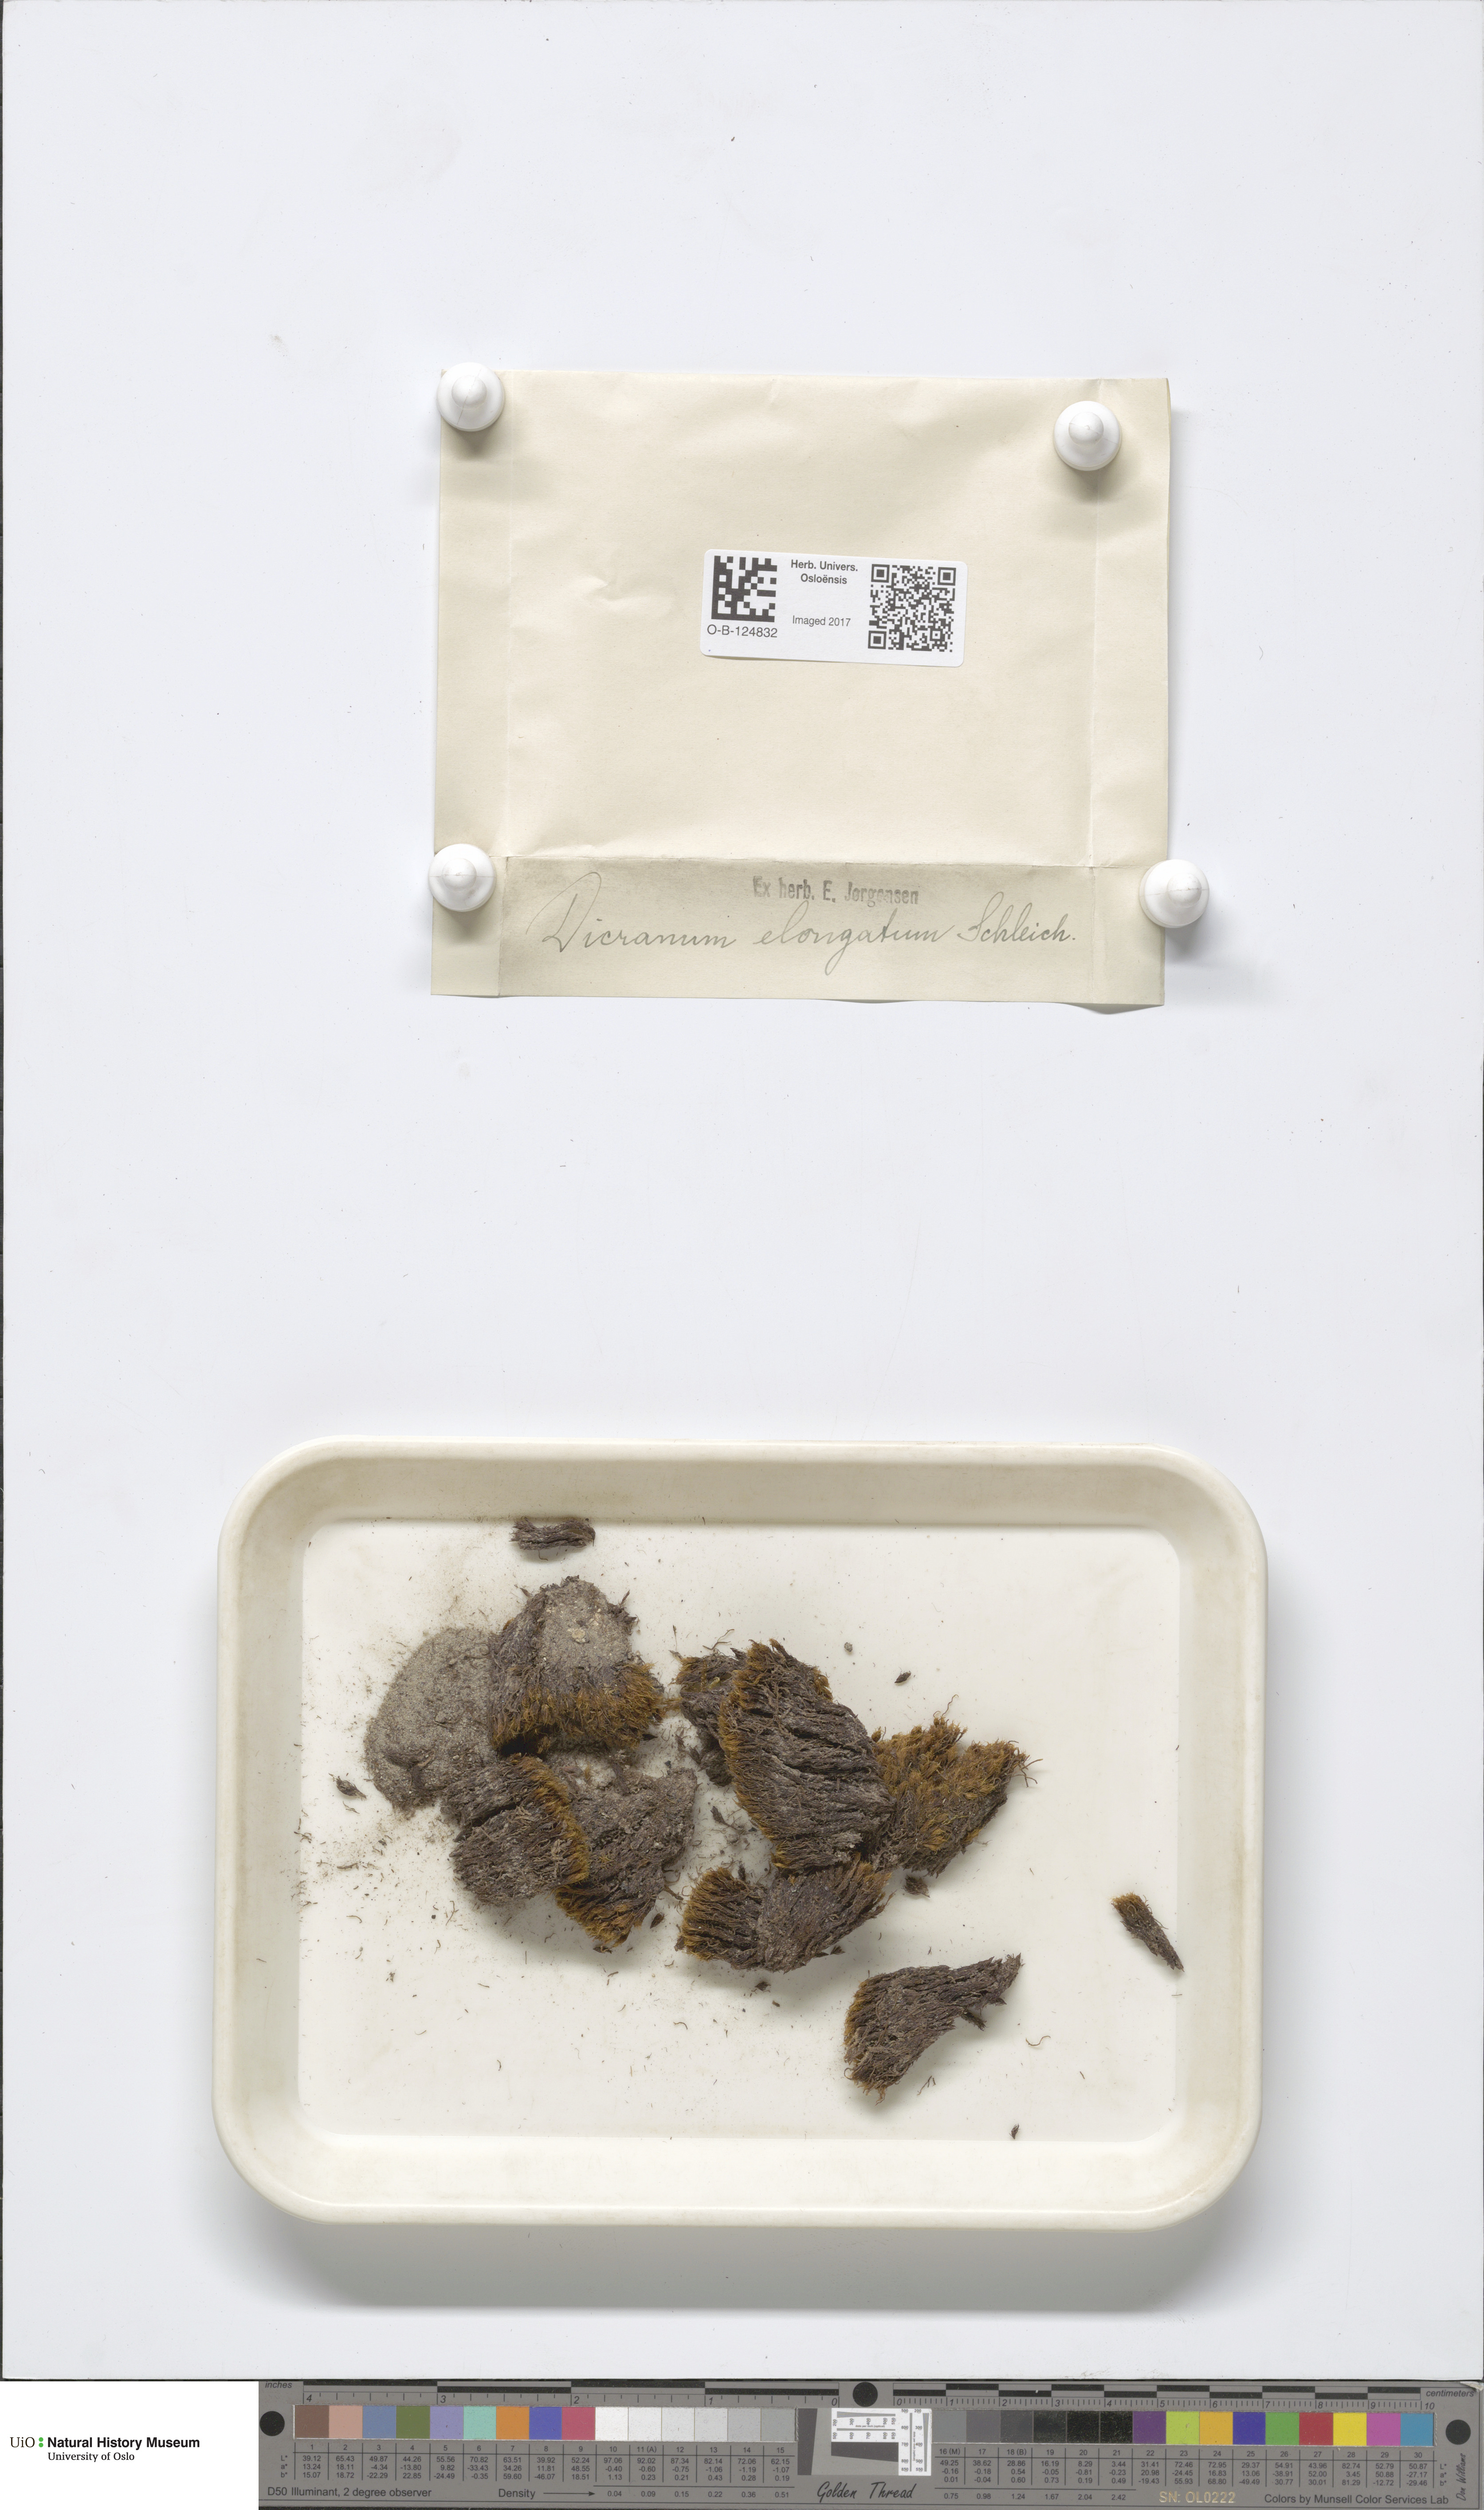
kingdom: Plantae
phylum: Bryophyta
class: Bryopsida
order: Dicranales
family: Dicranaceae
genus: Dicranum
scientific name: Dicranum elongatum
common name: Long-forked broom moss
